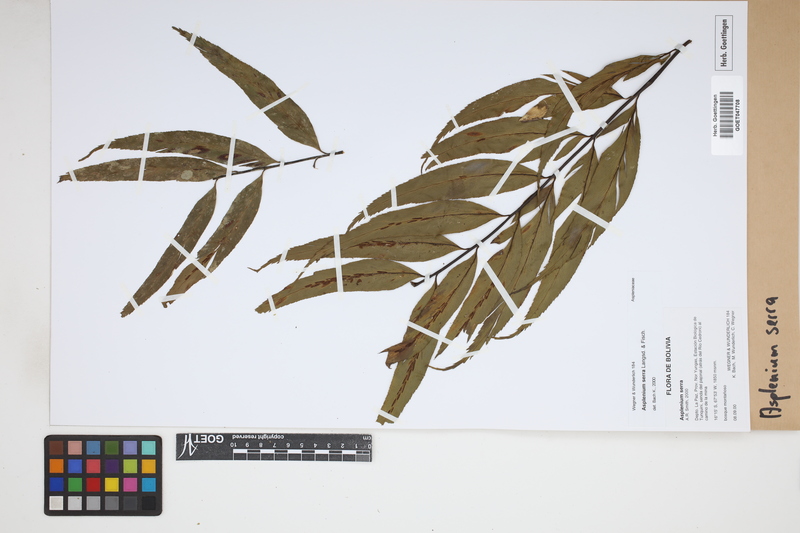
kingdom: Plantae
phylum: Tracheophyta
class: Polypodiopsida
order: Polypodiales
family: Aspleniaceae
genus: Asplenium
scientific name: Asplenium serra
